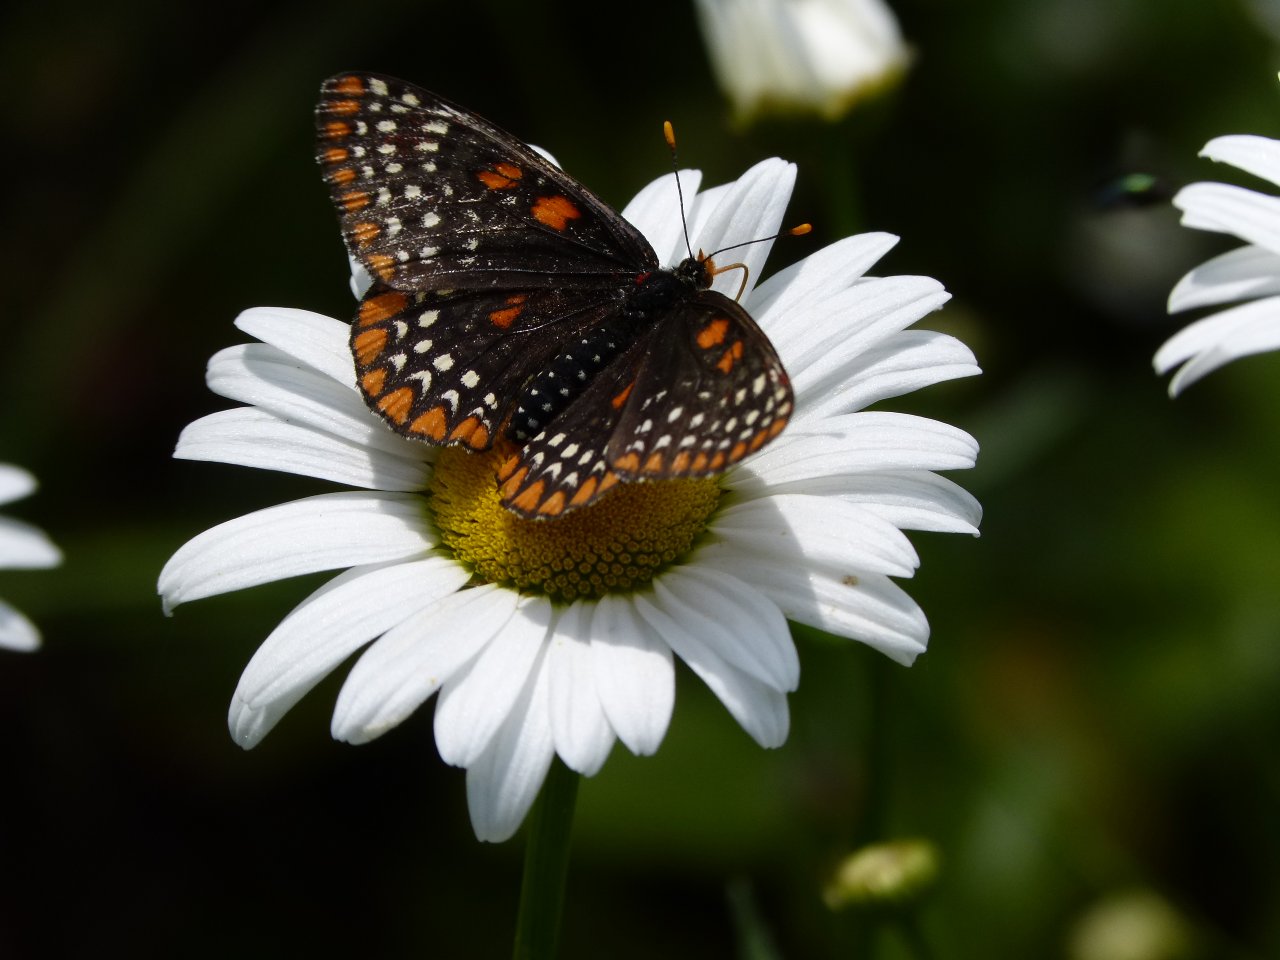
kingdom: Animalia
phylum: Arthropoda
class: Insecta
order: Lepidoptera
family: Nymphalidae
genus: Euphydryas
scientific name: Euphydryas phaeton
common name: Baltimore Checkerspot
